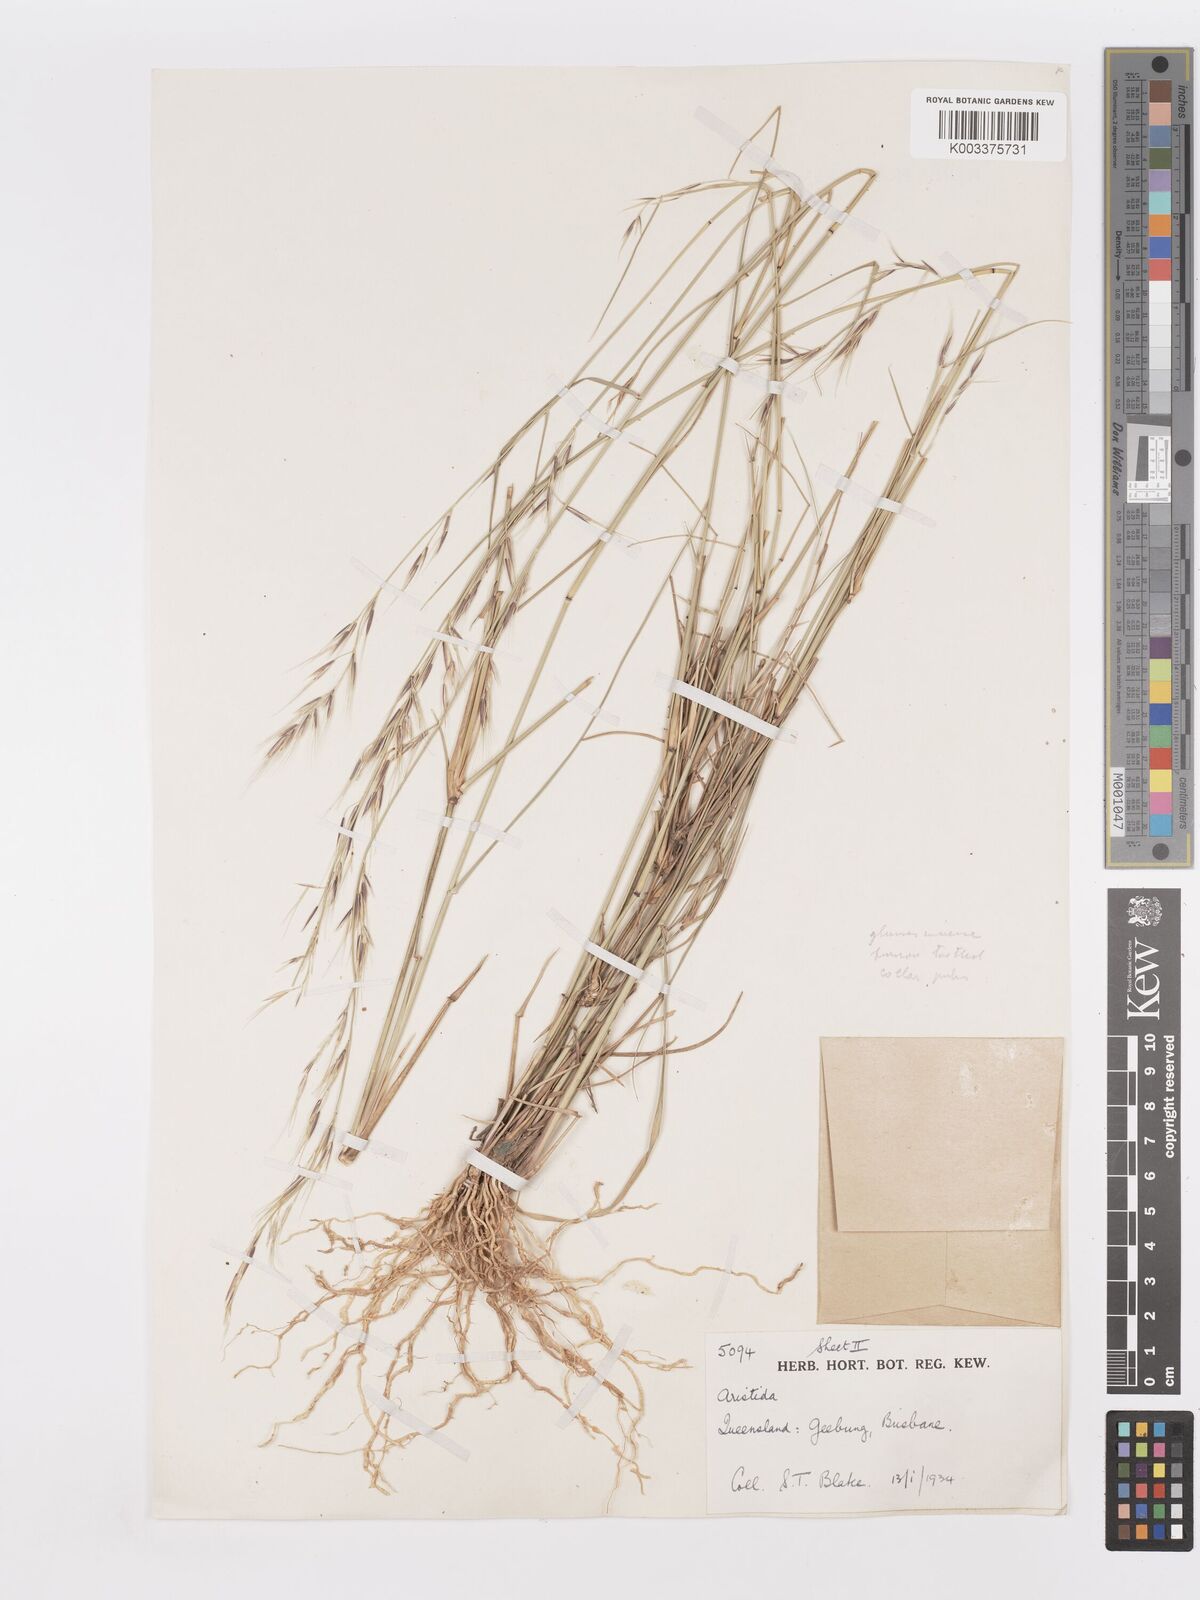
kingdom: Plantae
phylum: Tracheophyta
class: Liliopsida
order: Poales
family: Poaceae
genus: Aristida
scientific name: Aristida
